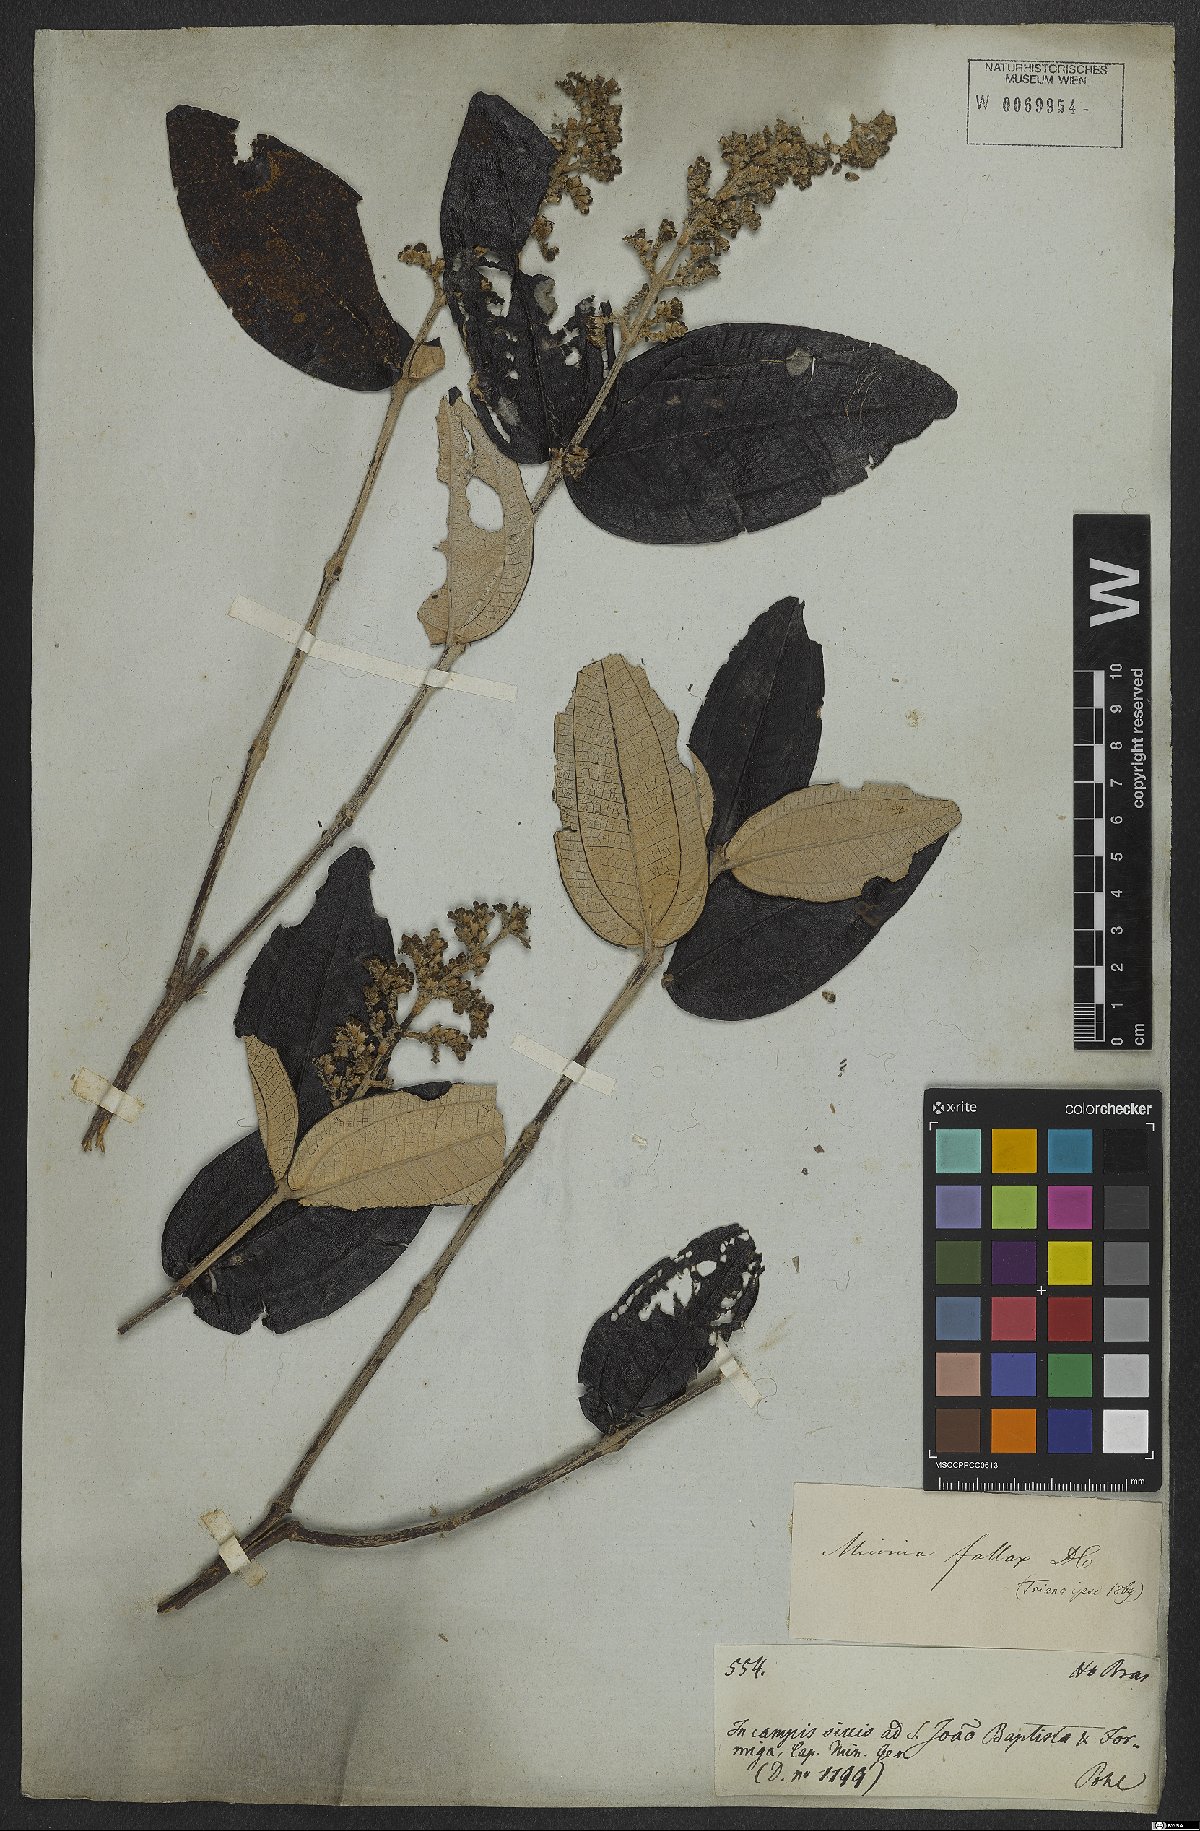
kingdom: Plantae
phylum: Tracheophyta
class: Magnoliopsida
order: Myrtales
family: Melastomataceae
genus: Miconia
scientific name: Miconia fallax
